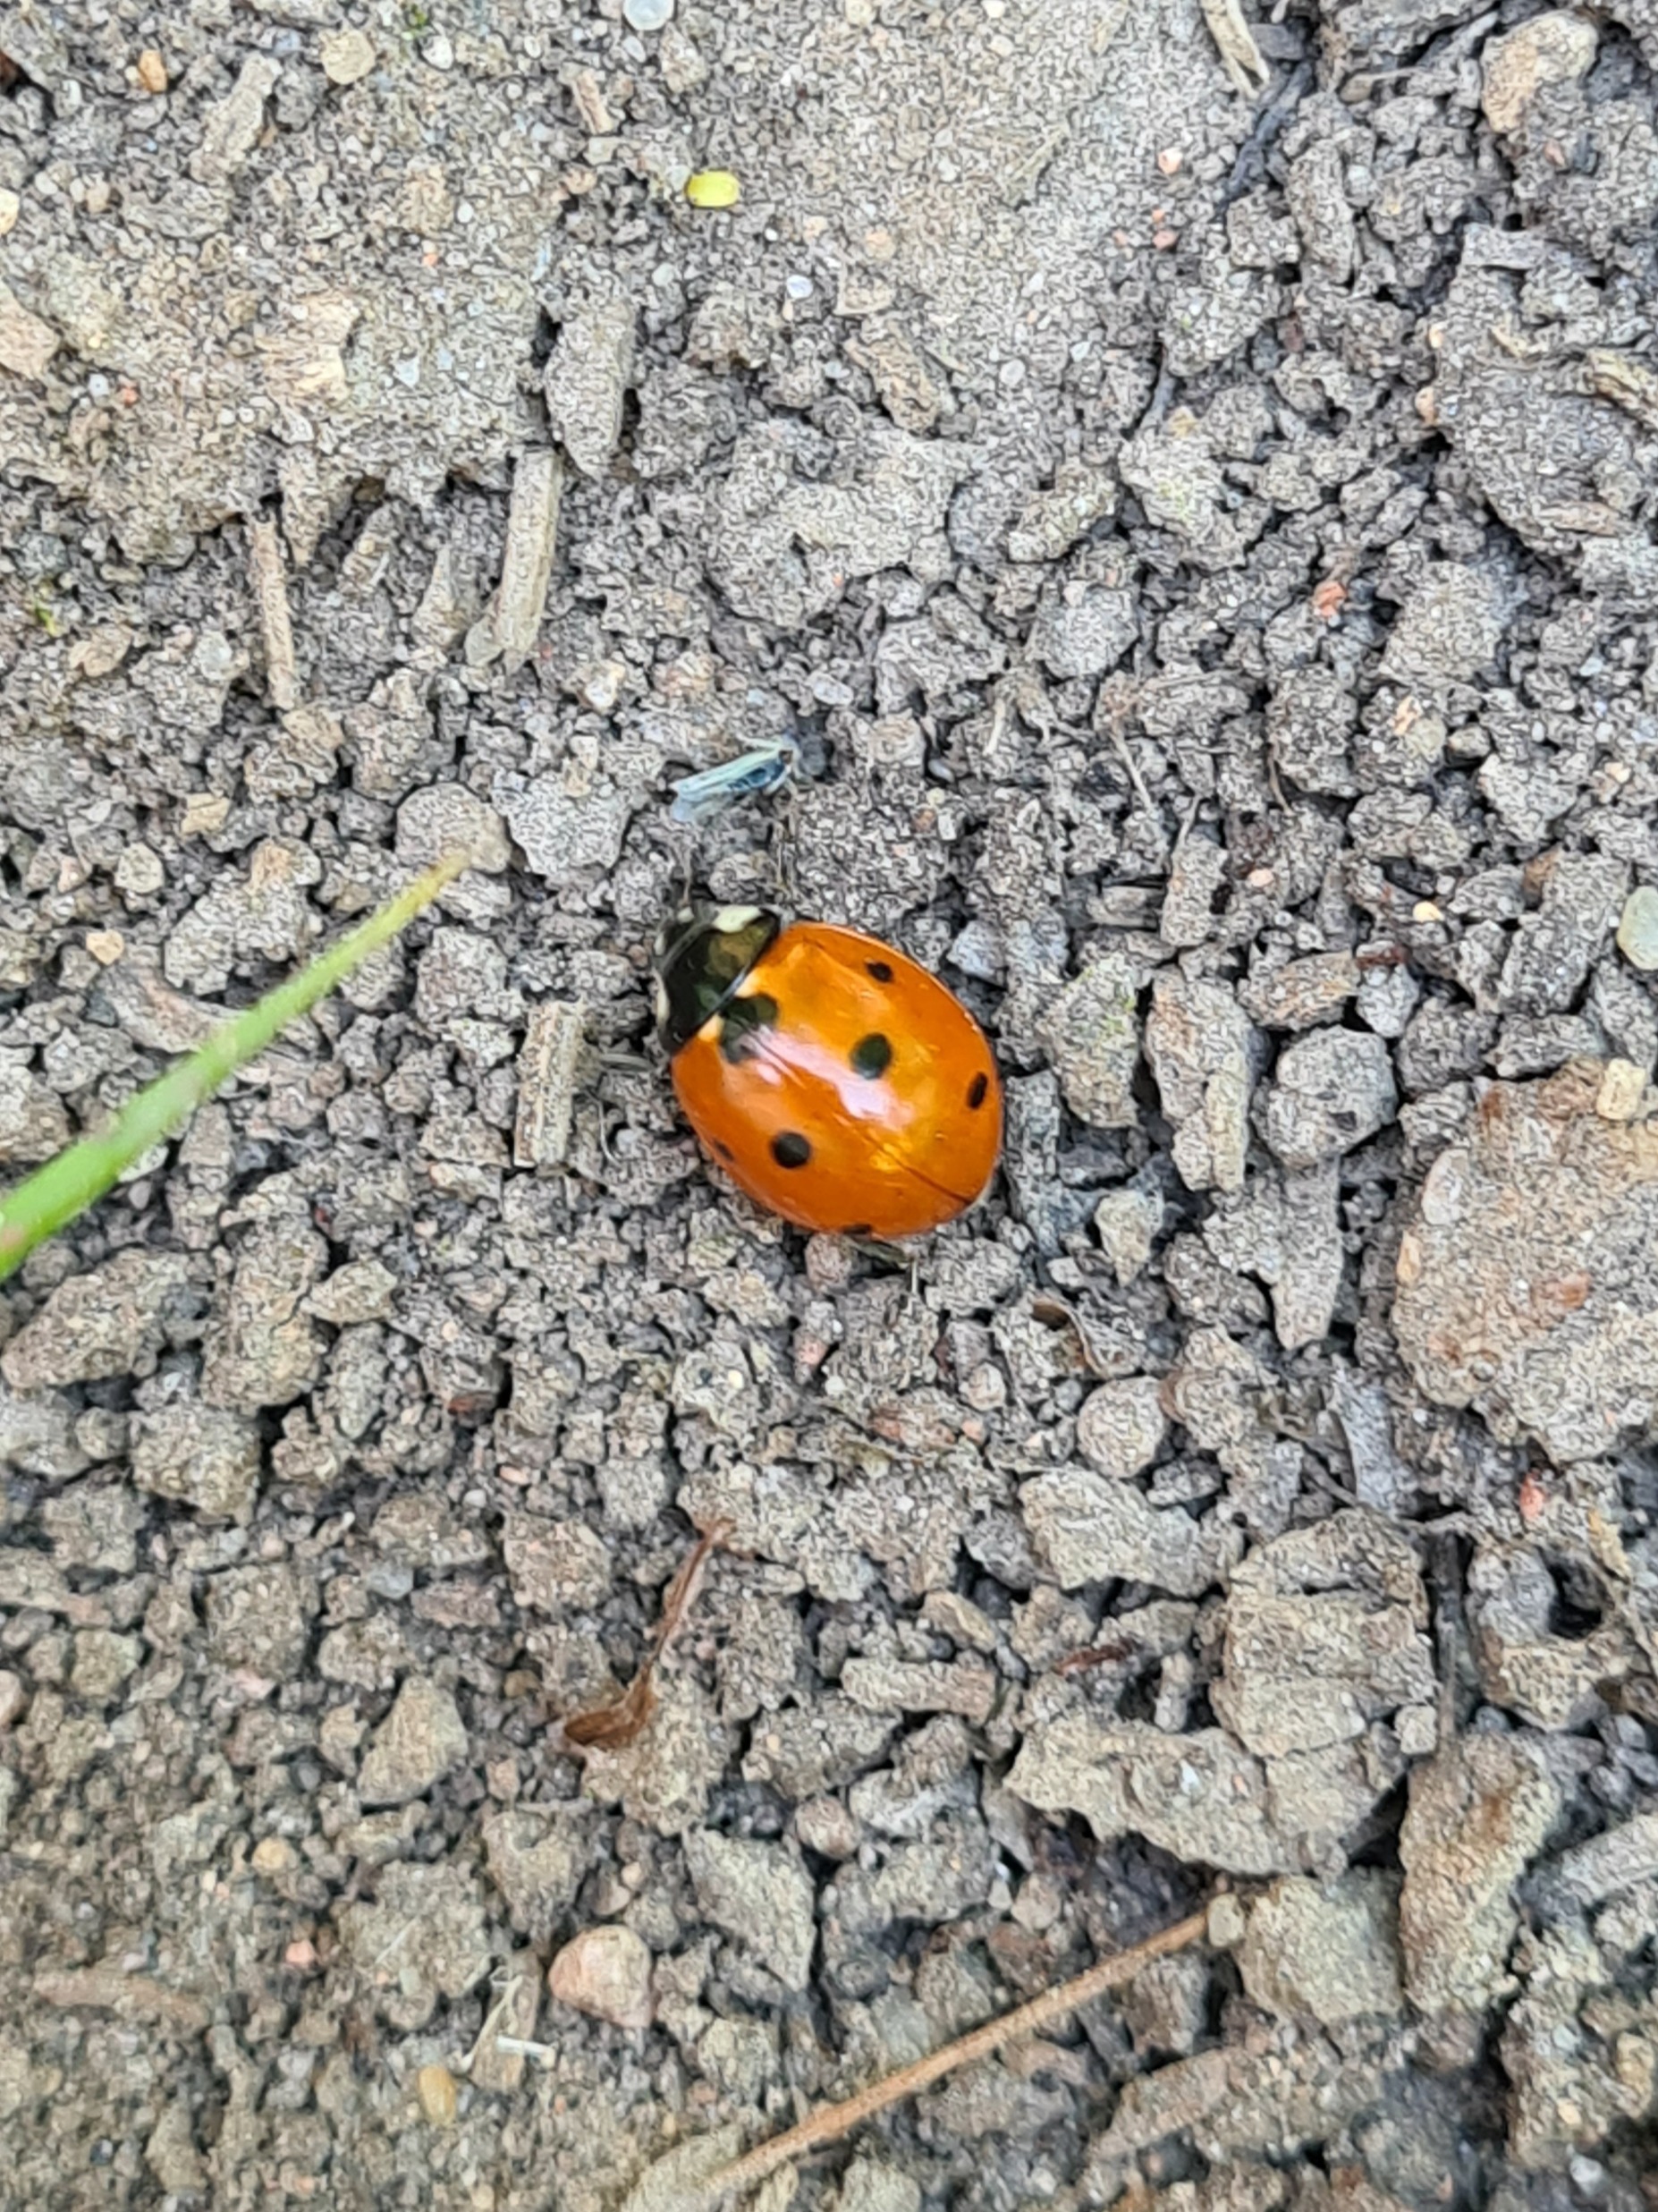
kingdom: Animalia
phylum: Arthropoda
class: Insecta
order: Coleoptera
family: Coccinellidae
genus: Coccinella
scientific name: Coccinella septempunctata
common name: Syvplettet mariehøne
